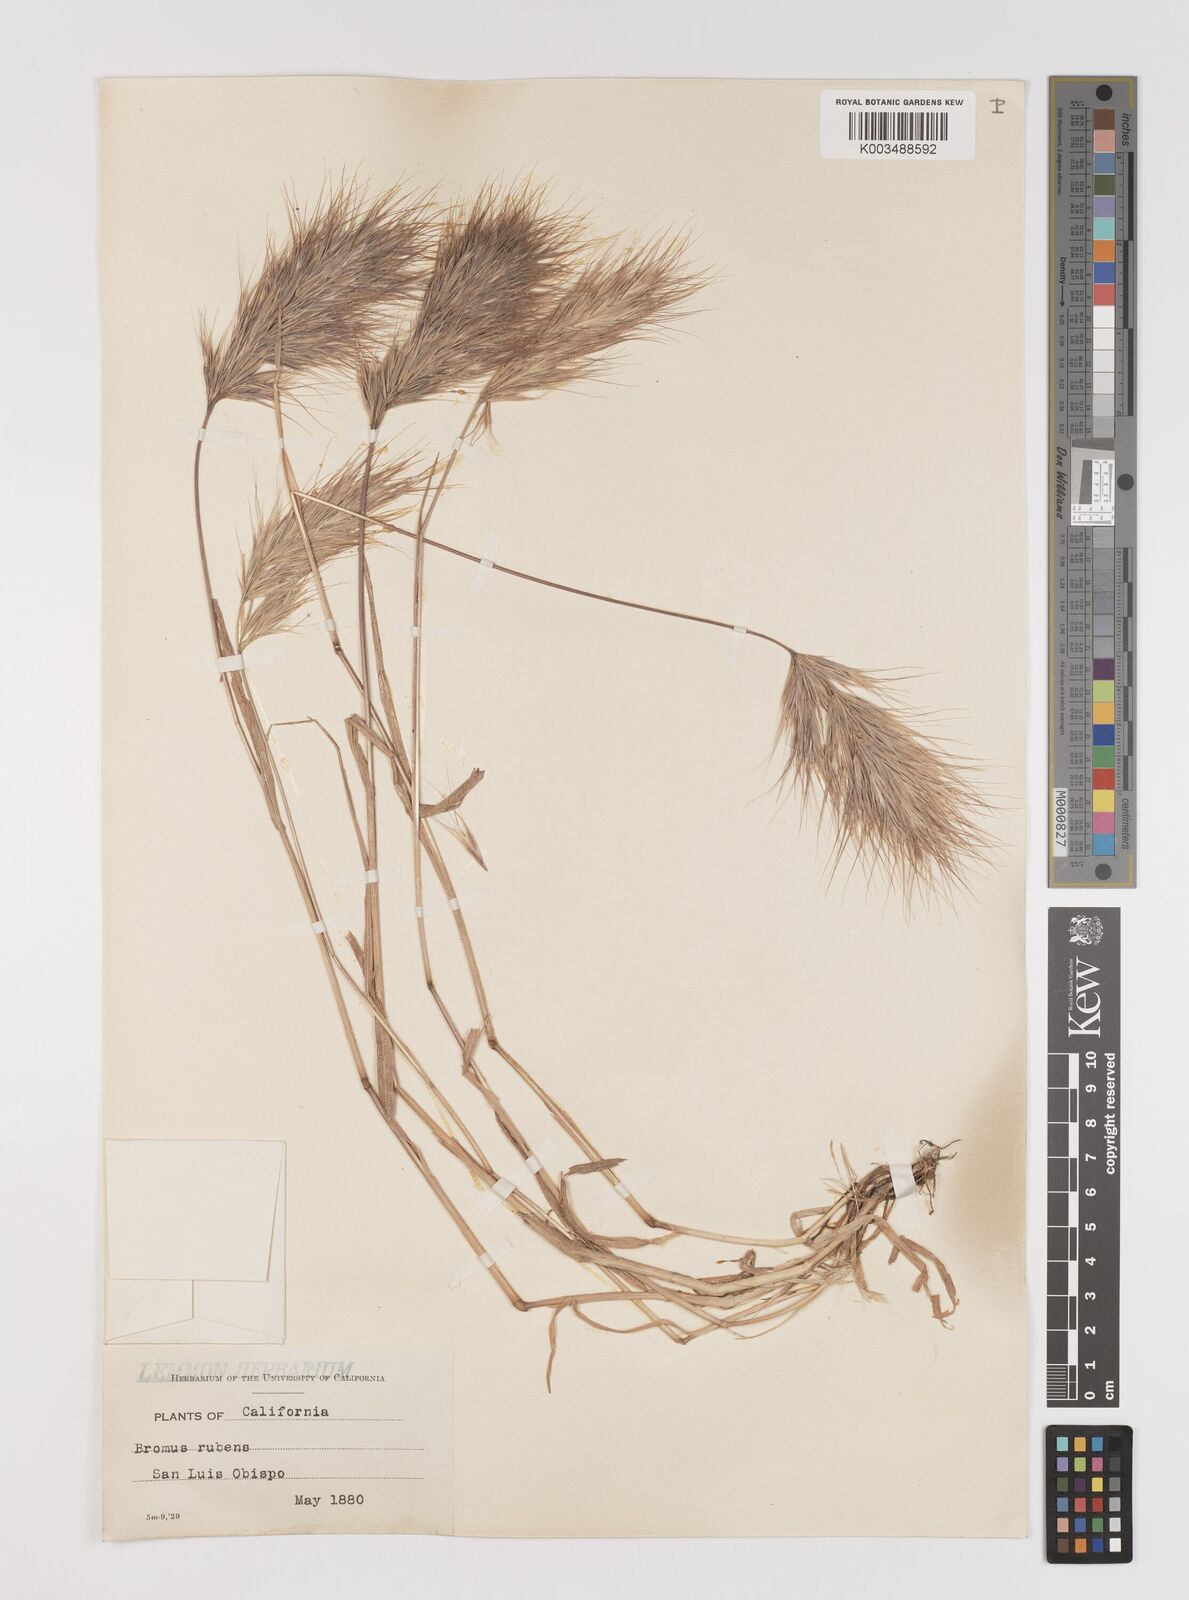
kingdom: Plantae
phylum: Tracheophyta
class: Liliopsida
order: Poales
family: Poaceae
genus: Bromus
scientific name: Bromus rubens
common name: Red brome
